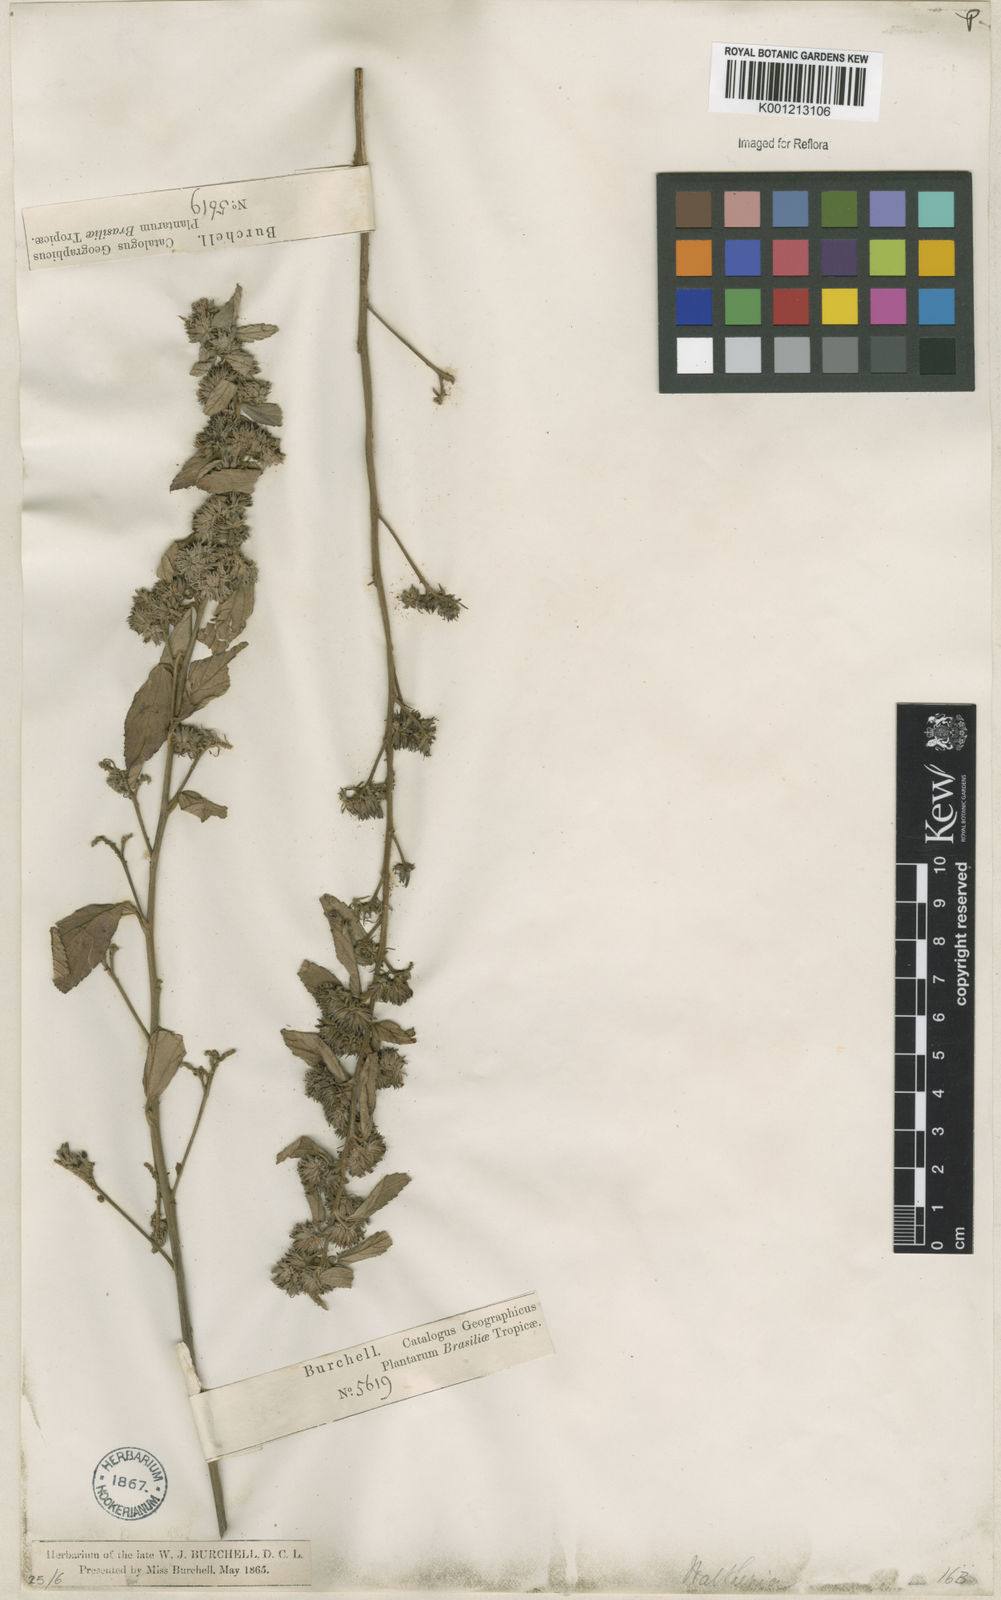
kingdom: Plantae
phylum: Tracheophyta
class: Magnoliopsida
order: Malvales
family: Malvaceae
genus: Waltheria
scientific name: Waltheria ferruginea
